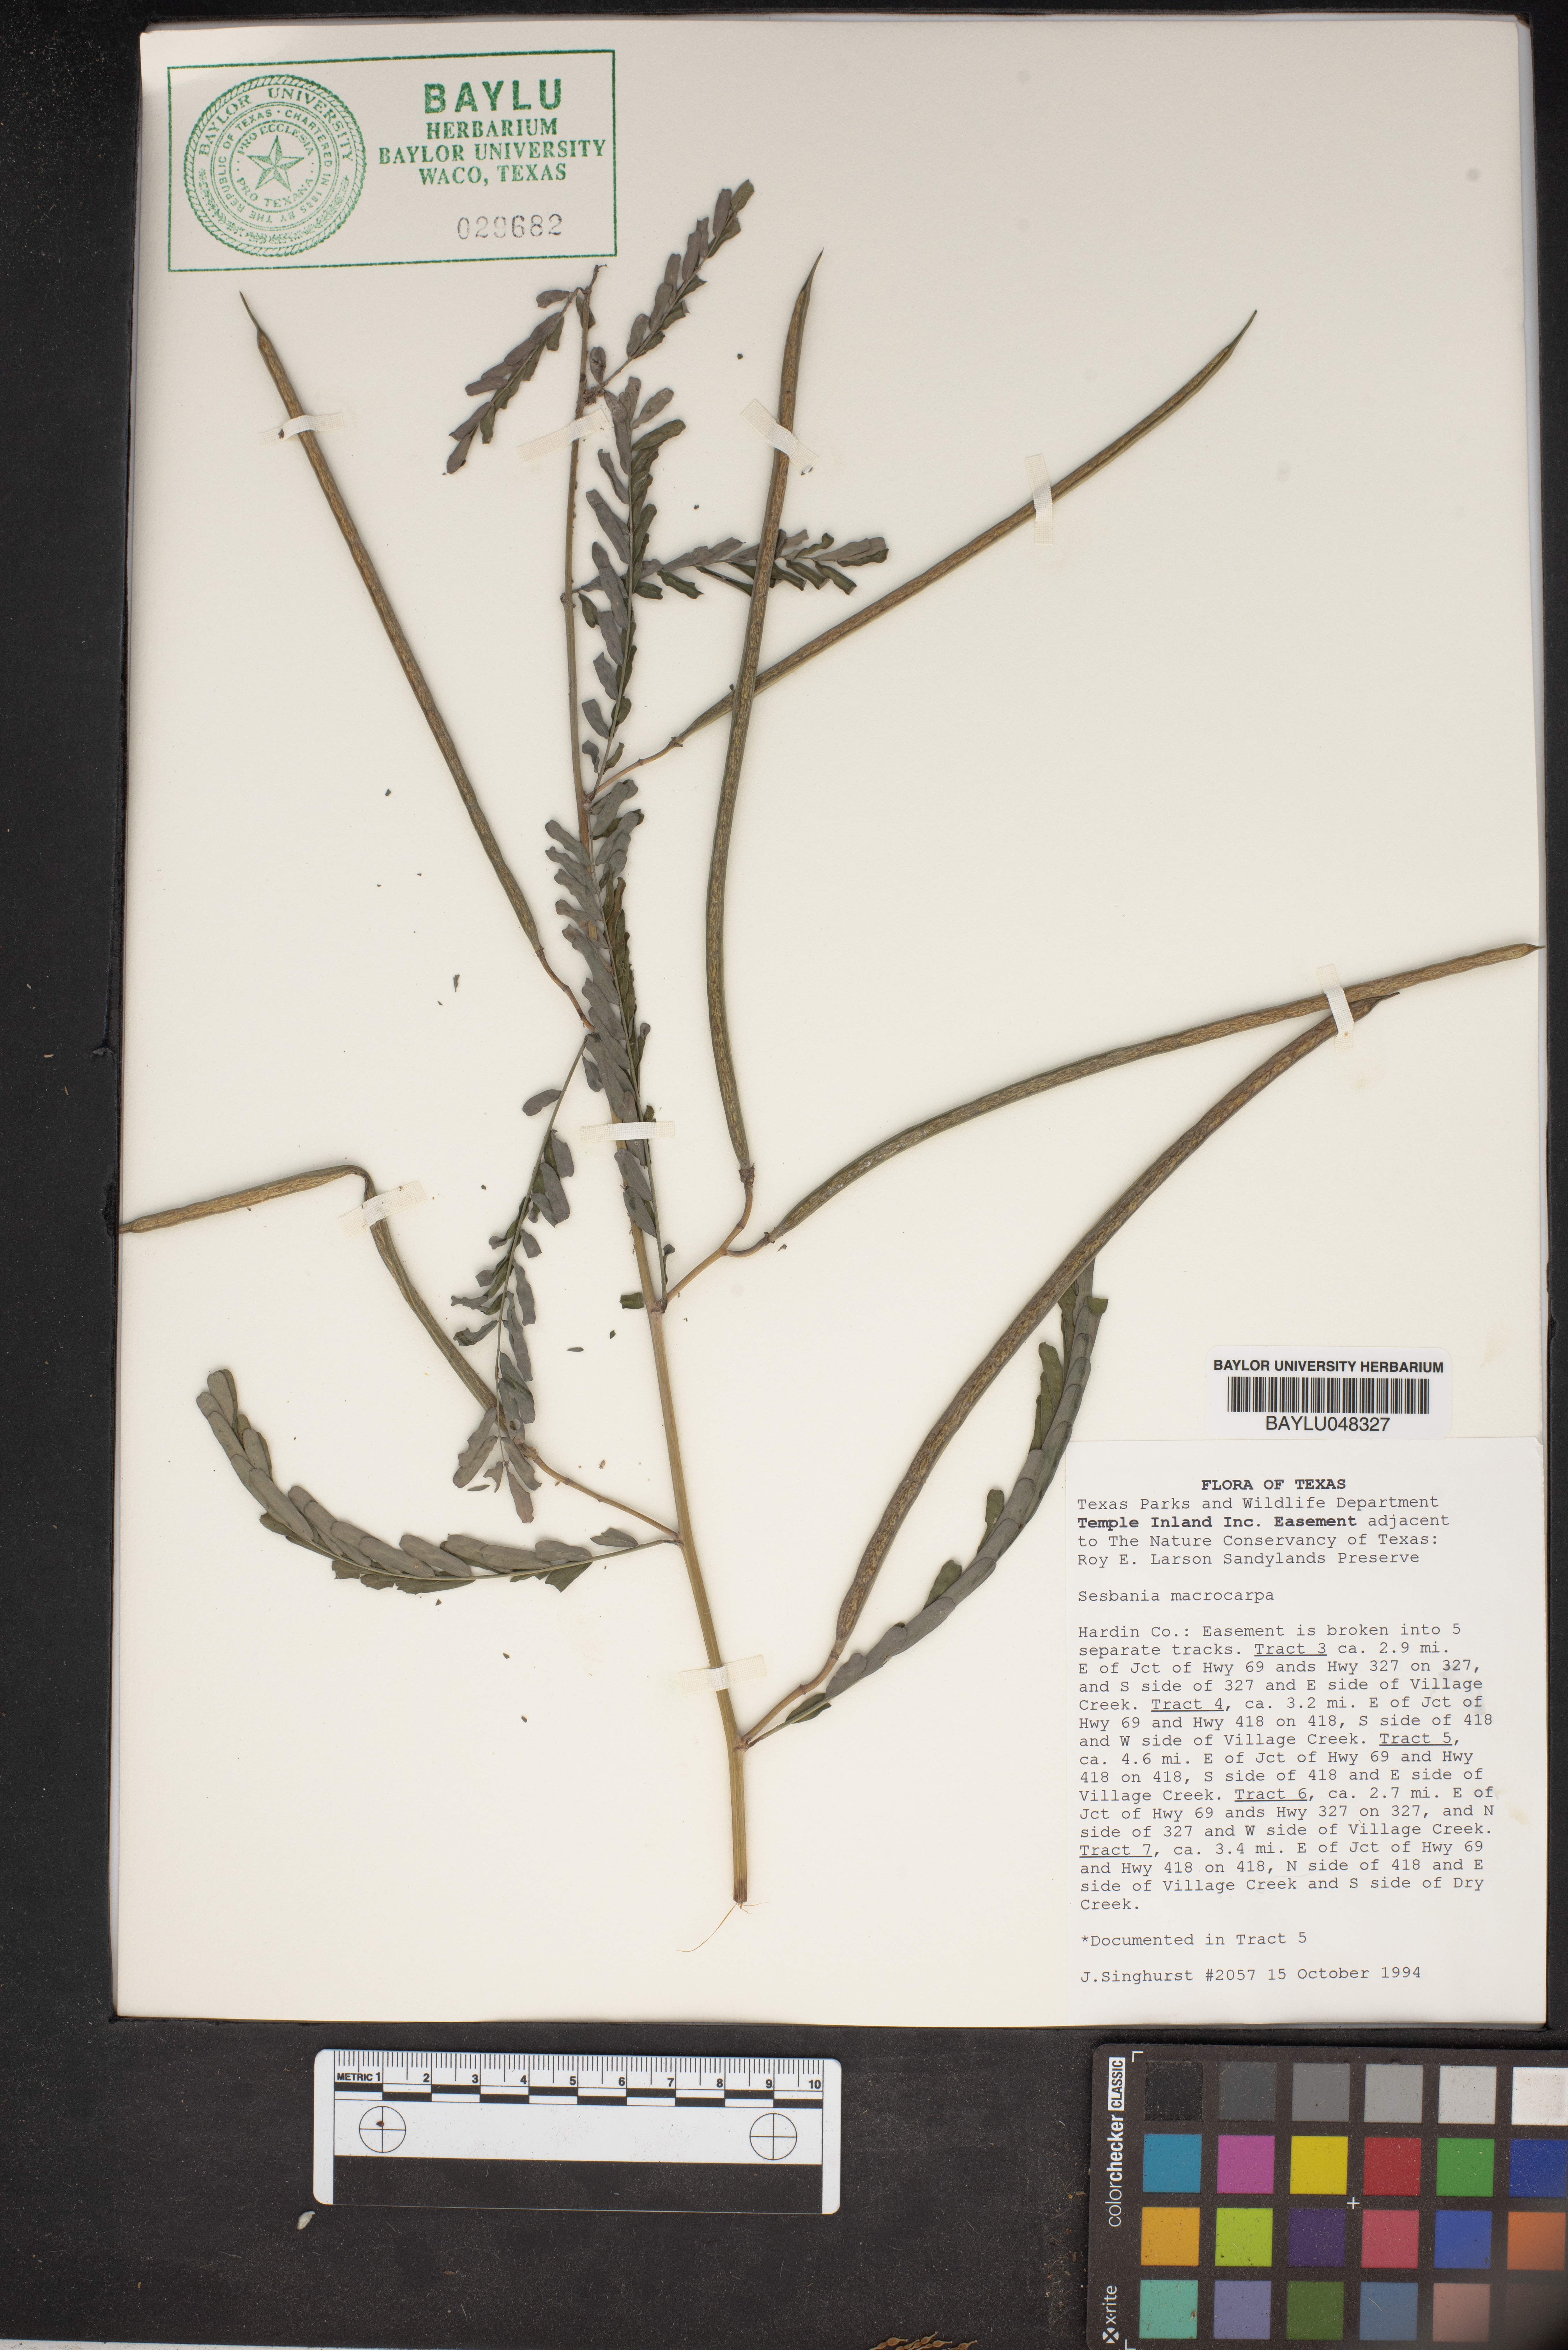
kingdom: Plantae
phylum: Tracheophyta
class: Magnoliopsida
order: Fabales
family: Fabaceae
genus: Sesbania
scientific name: Sesbania vesicaria
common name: Bagpod
